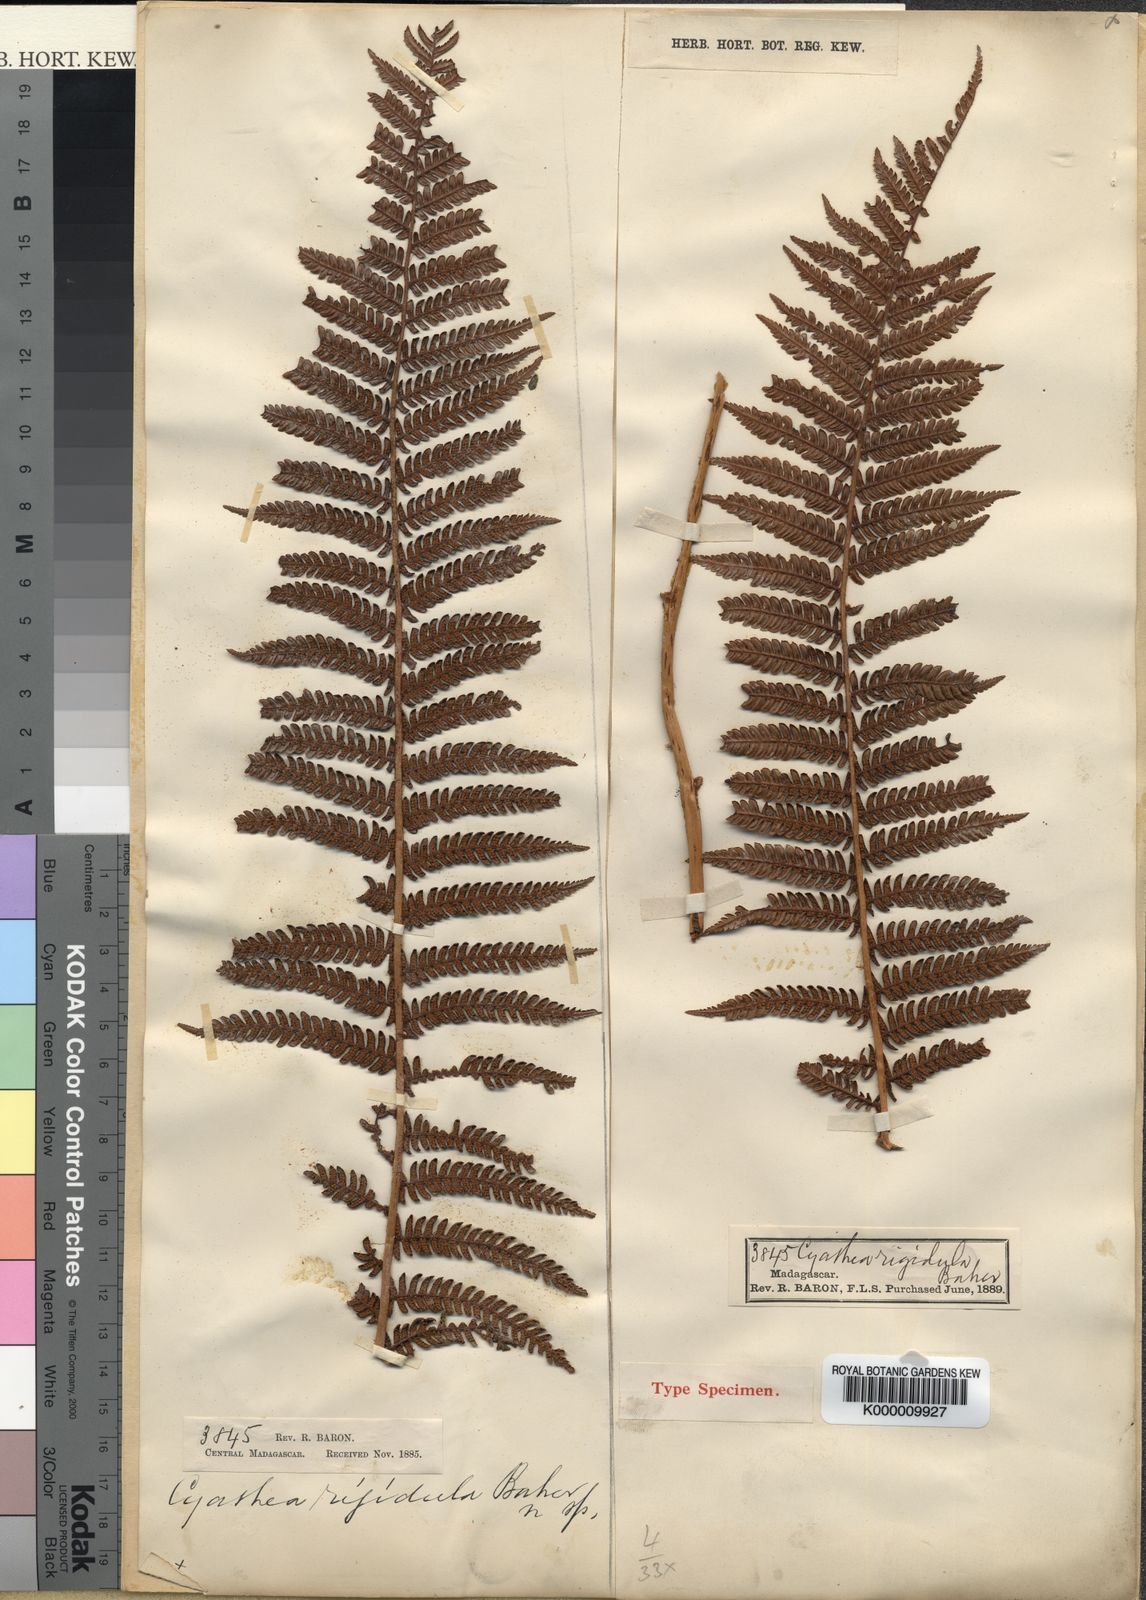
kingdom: Plantae
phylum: Tracheophyta
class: Polypodiopsida
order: Cyatheales
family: Cyatheaceae
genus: Alsophila
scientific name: Alsophila hyacinthei
